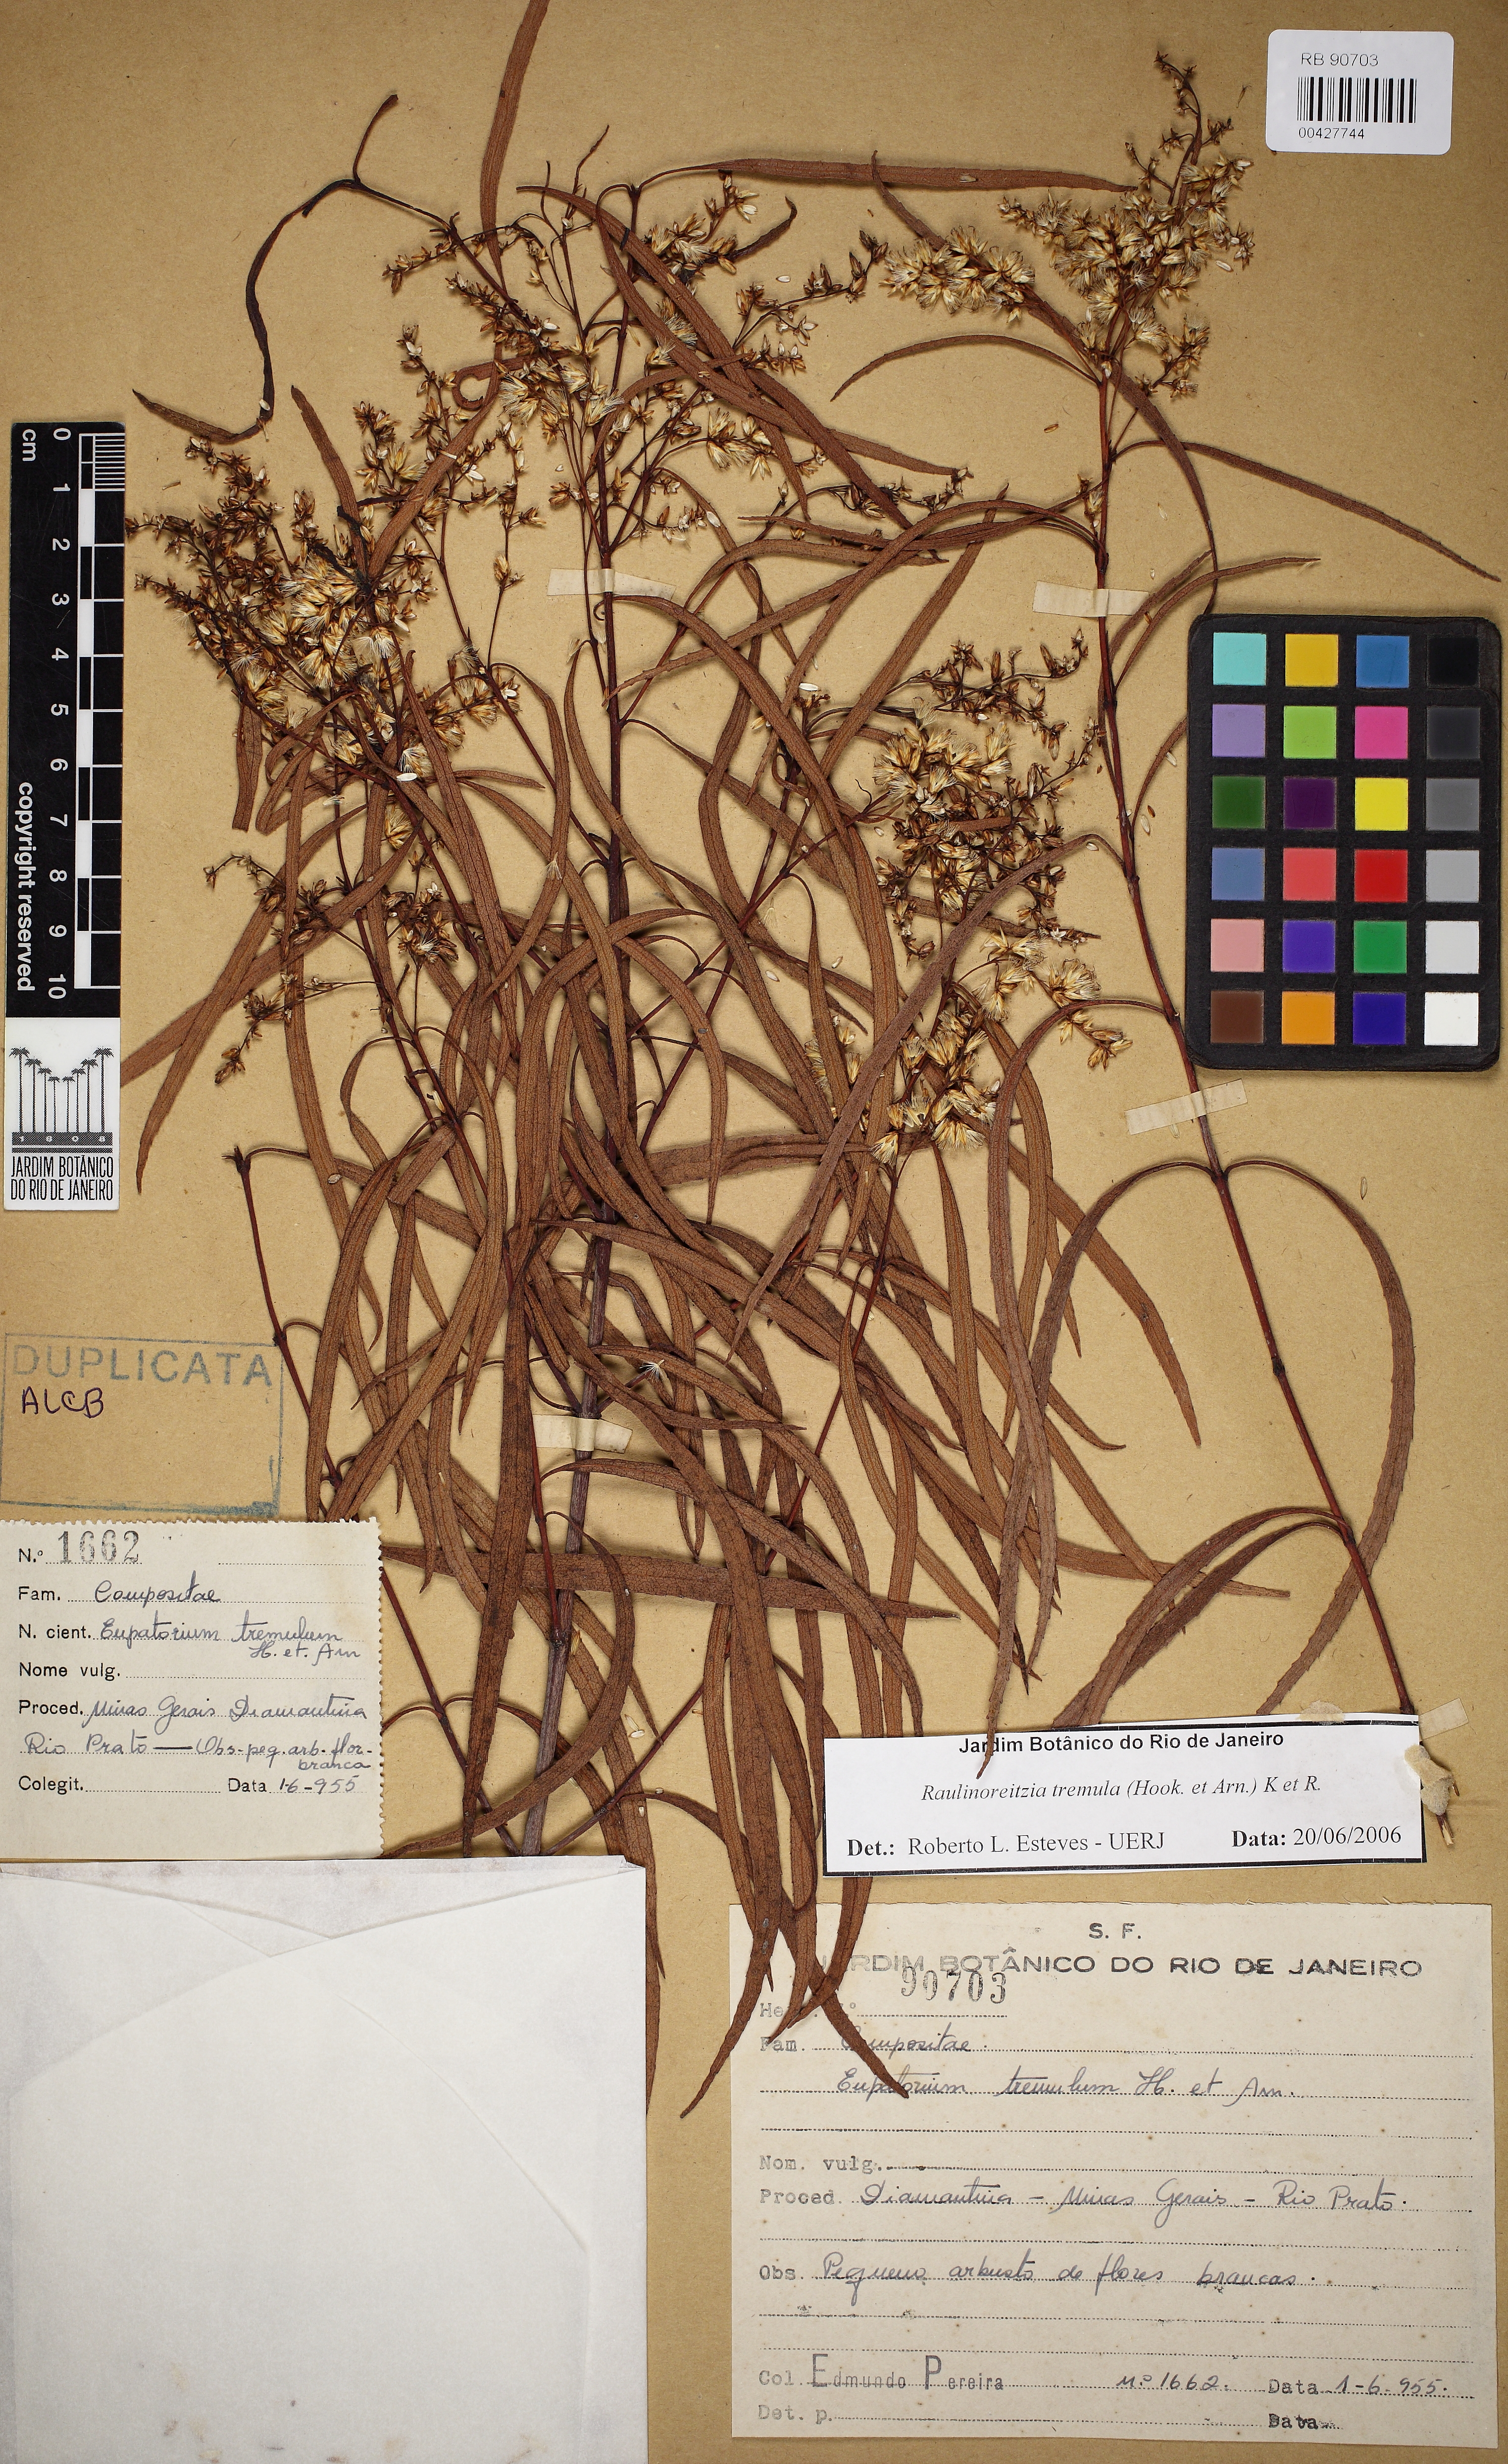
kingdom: Plantae
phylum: Tracheophyta
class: Magnoliopsida
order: Asterales
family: Asteraceae
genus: Raulinoreitzia
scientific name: Raulinoreitzia tremula
